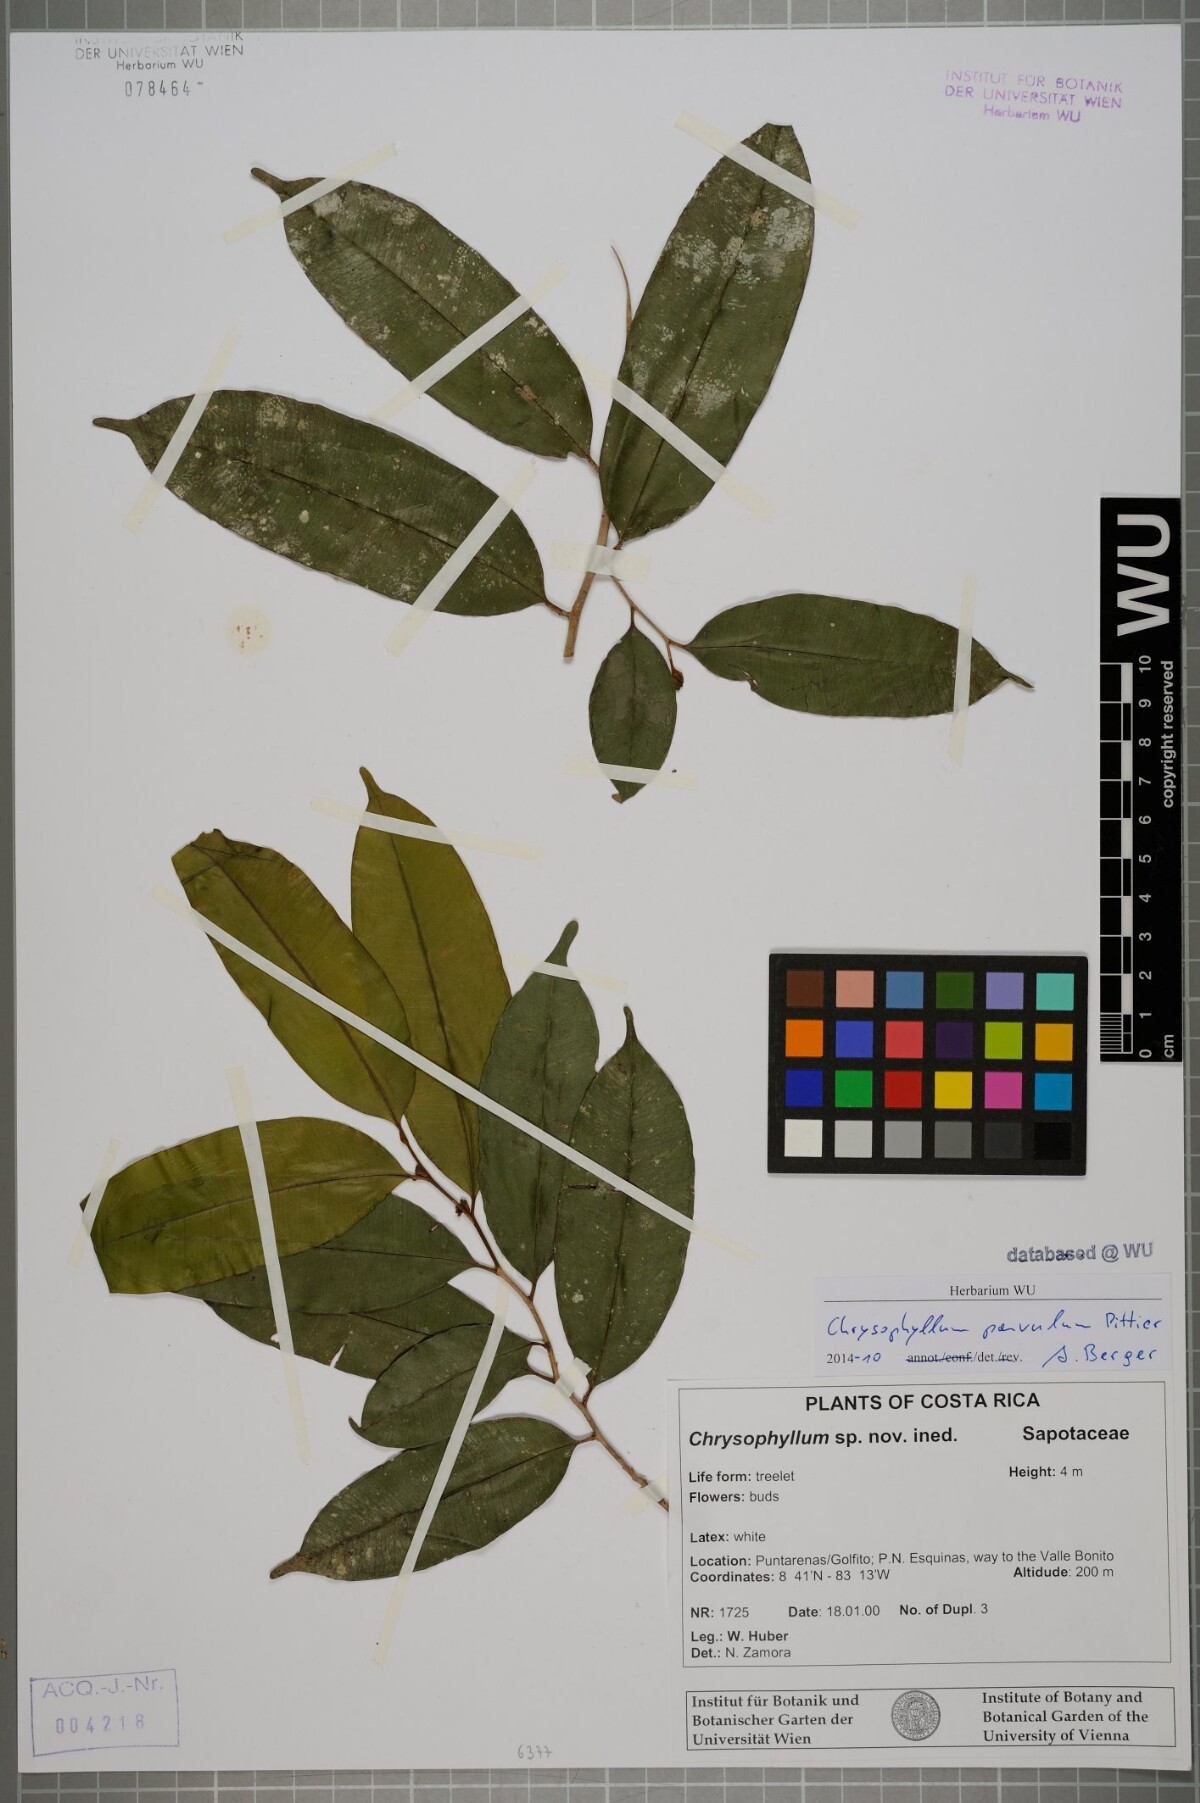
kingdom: Plantae
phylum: Tracheophyta
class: Magnoliopsida
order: Ericales
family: Sapotaceae
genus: Chrysophyllum
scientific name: Chrysophyllum moralesianum
